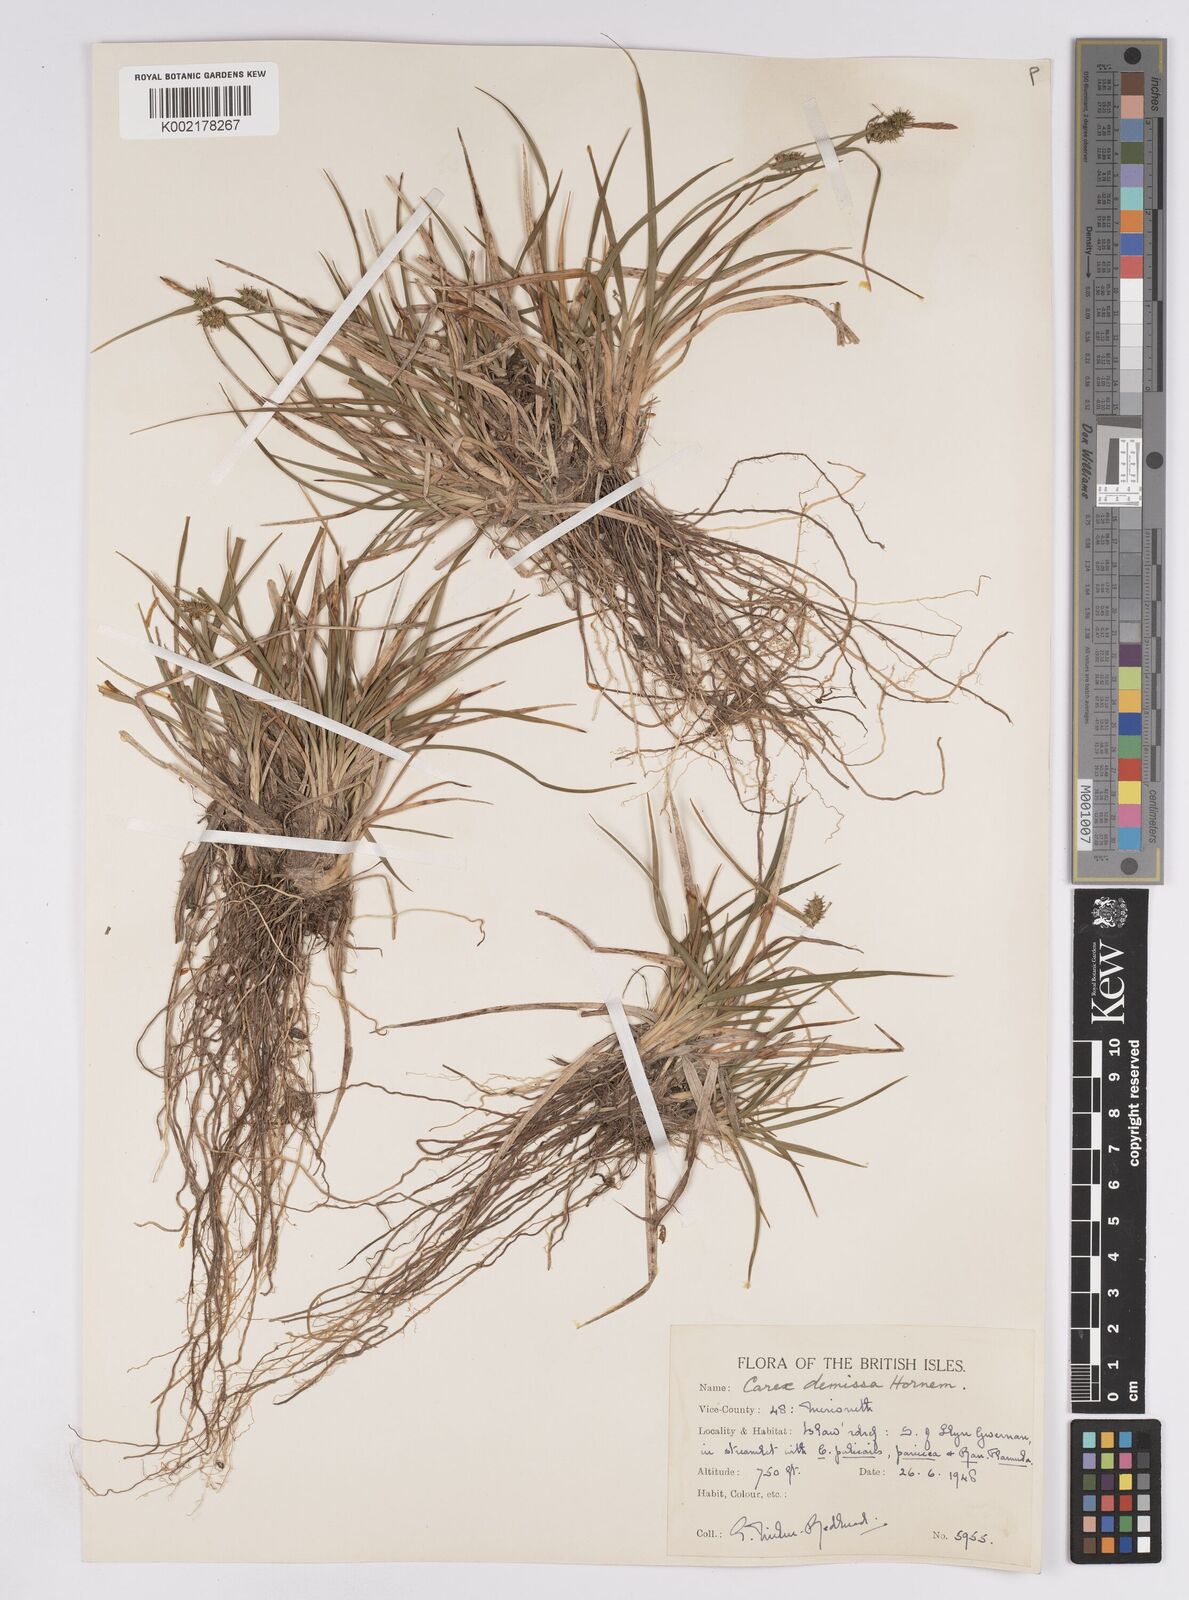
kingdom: Plantae
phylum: Tracheophyta
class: Liliopsida
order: Poales
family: Cyperaceae
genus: Carex
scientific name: Carex demissa
